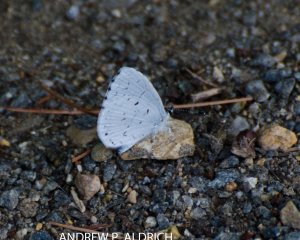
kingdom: Animalia
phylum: Arthropoda
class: Insecta
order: Lepidoptera
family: Lycaenidae
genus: Celastrina
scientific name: Celastrina
